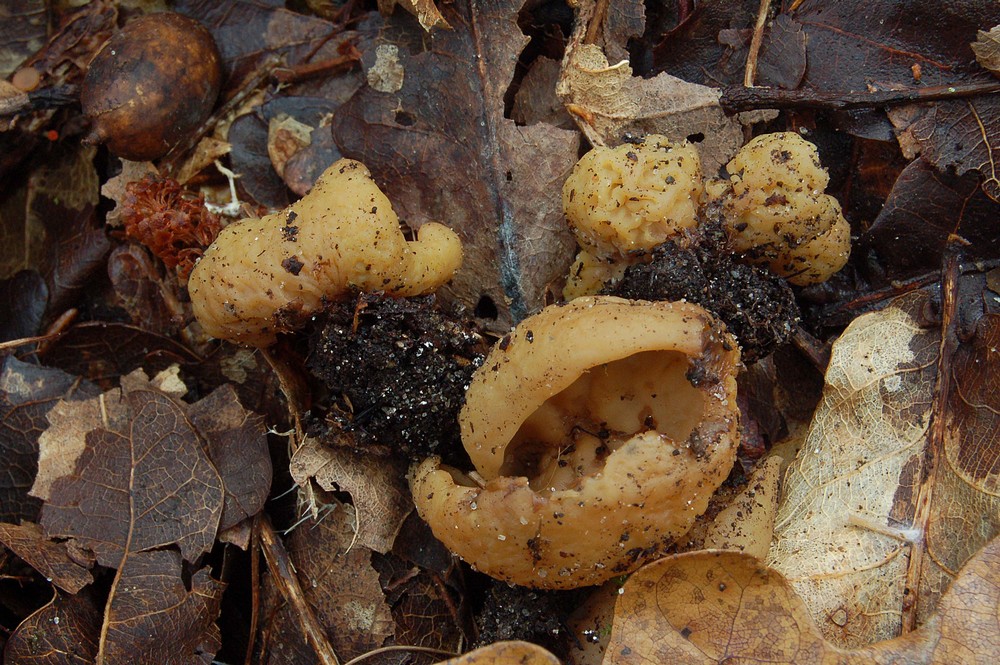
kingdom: Fungi
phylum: Ascomycota
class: Pezizomycetes
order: Pezizales
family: Otideaceae
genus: Otidea
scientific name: Otidea phlebophora
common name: året ørebæger
